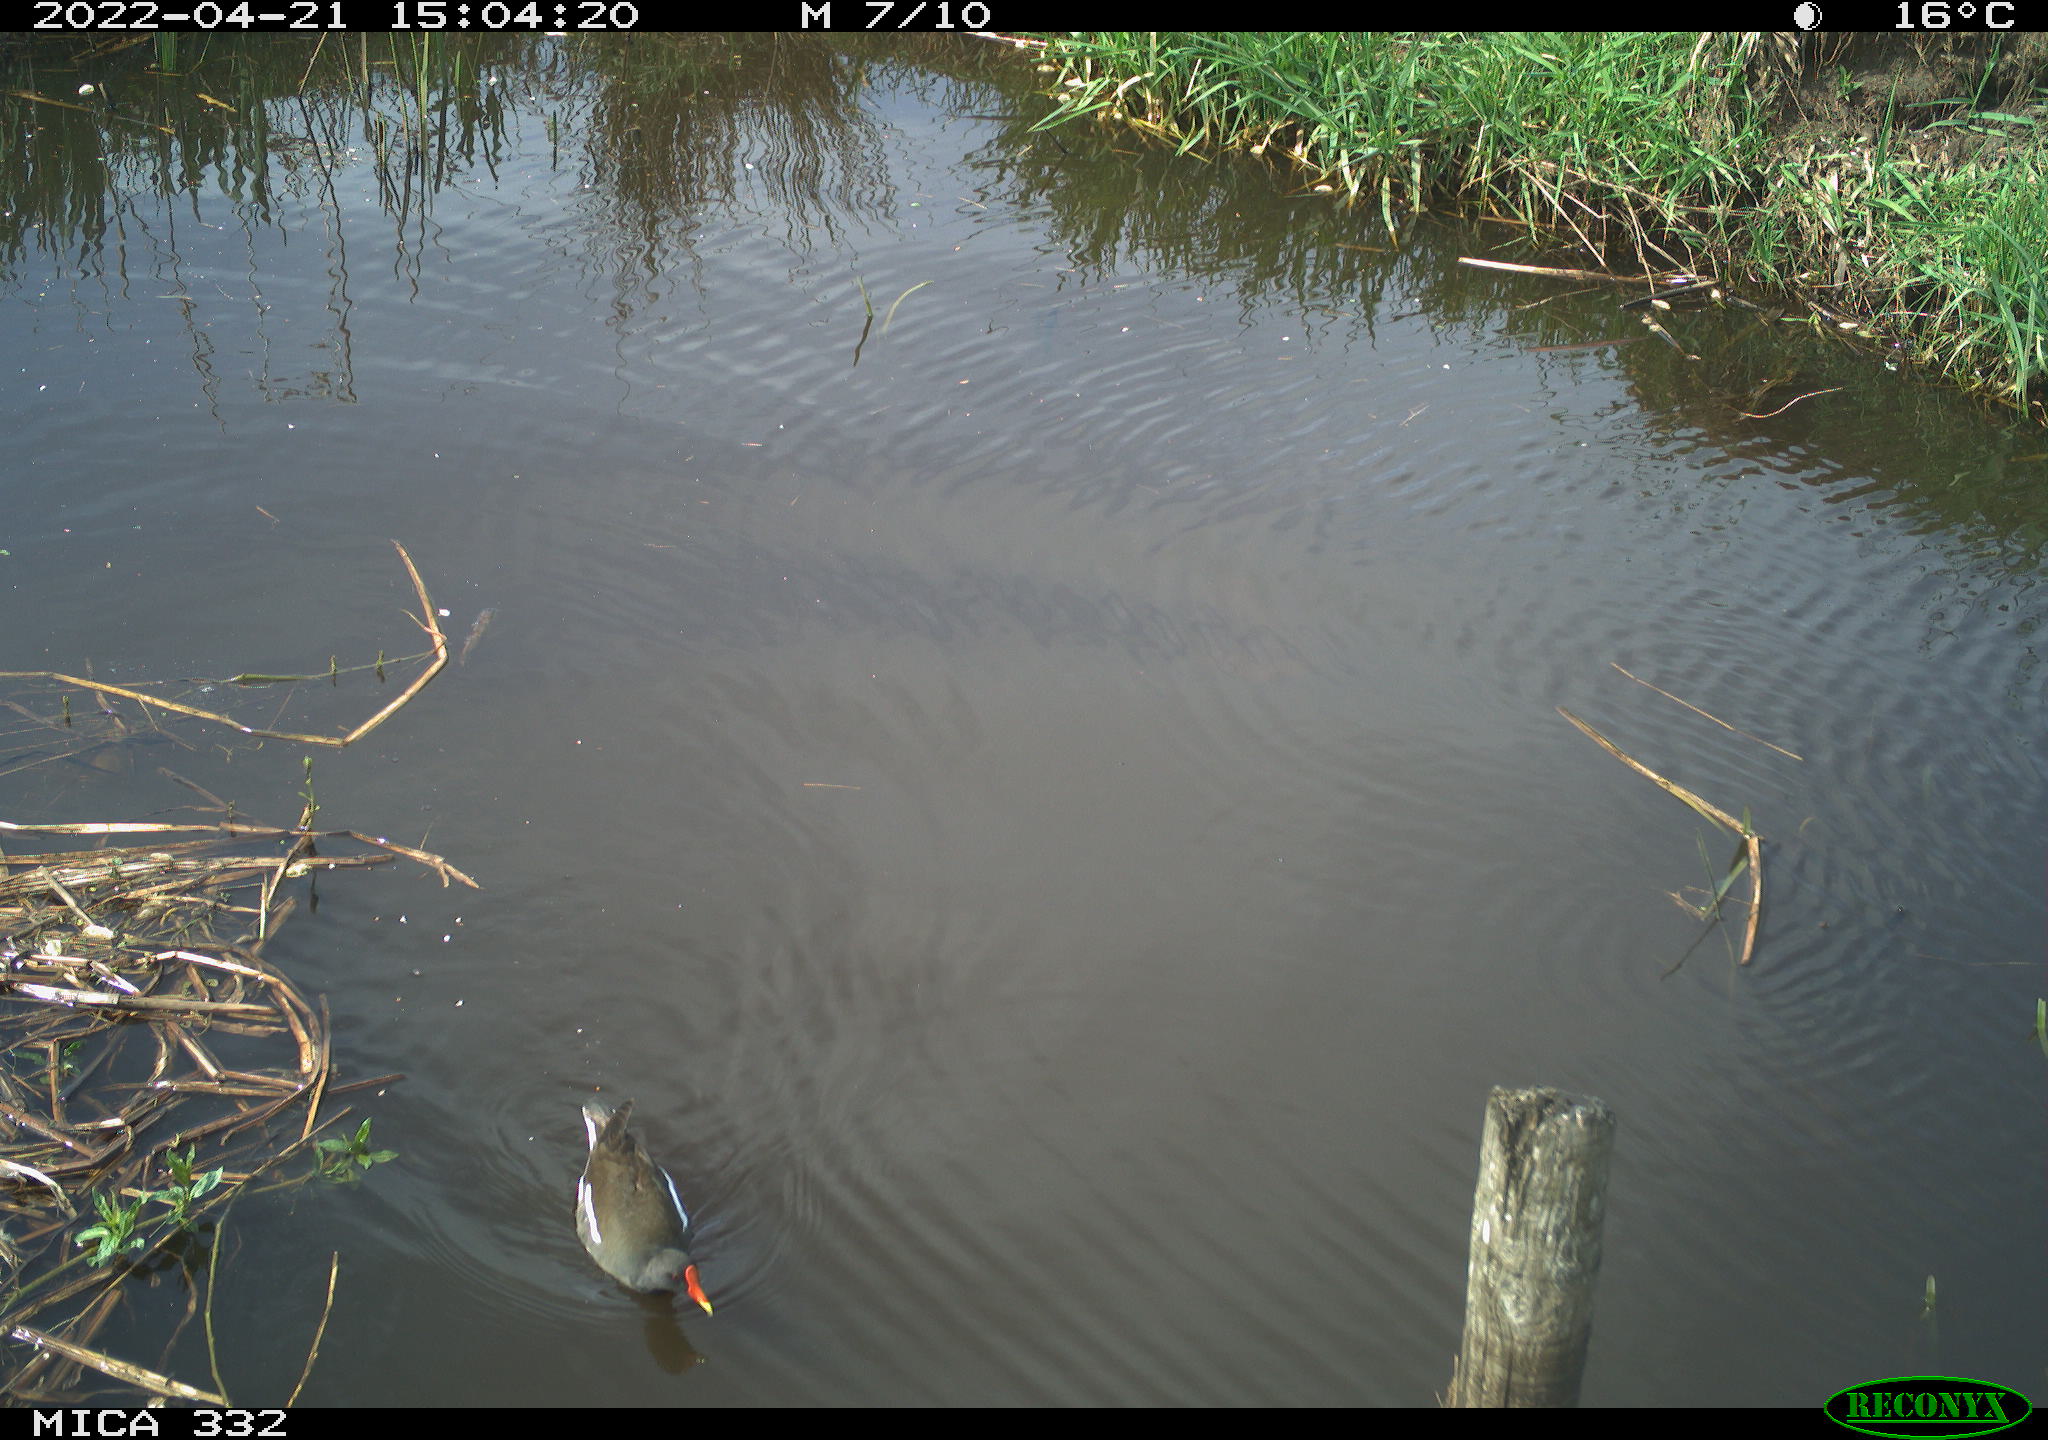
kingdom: Animalia
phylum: Chordata
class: Aves
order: Gruiformes
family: Rallidae
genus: Gallinula
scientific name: Gallinula chloropus
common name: Common moorhen
